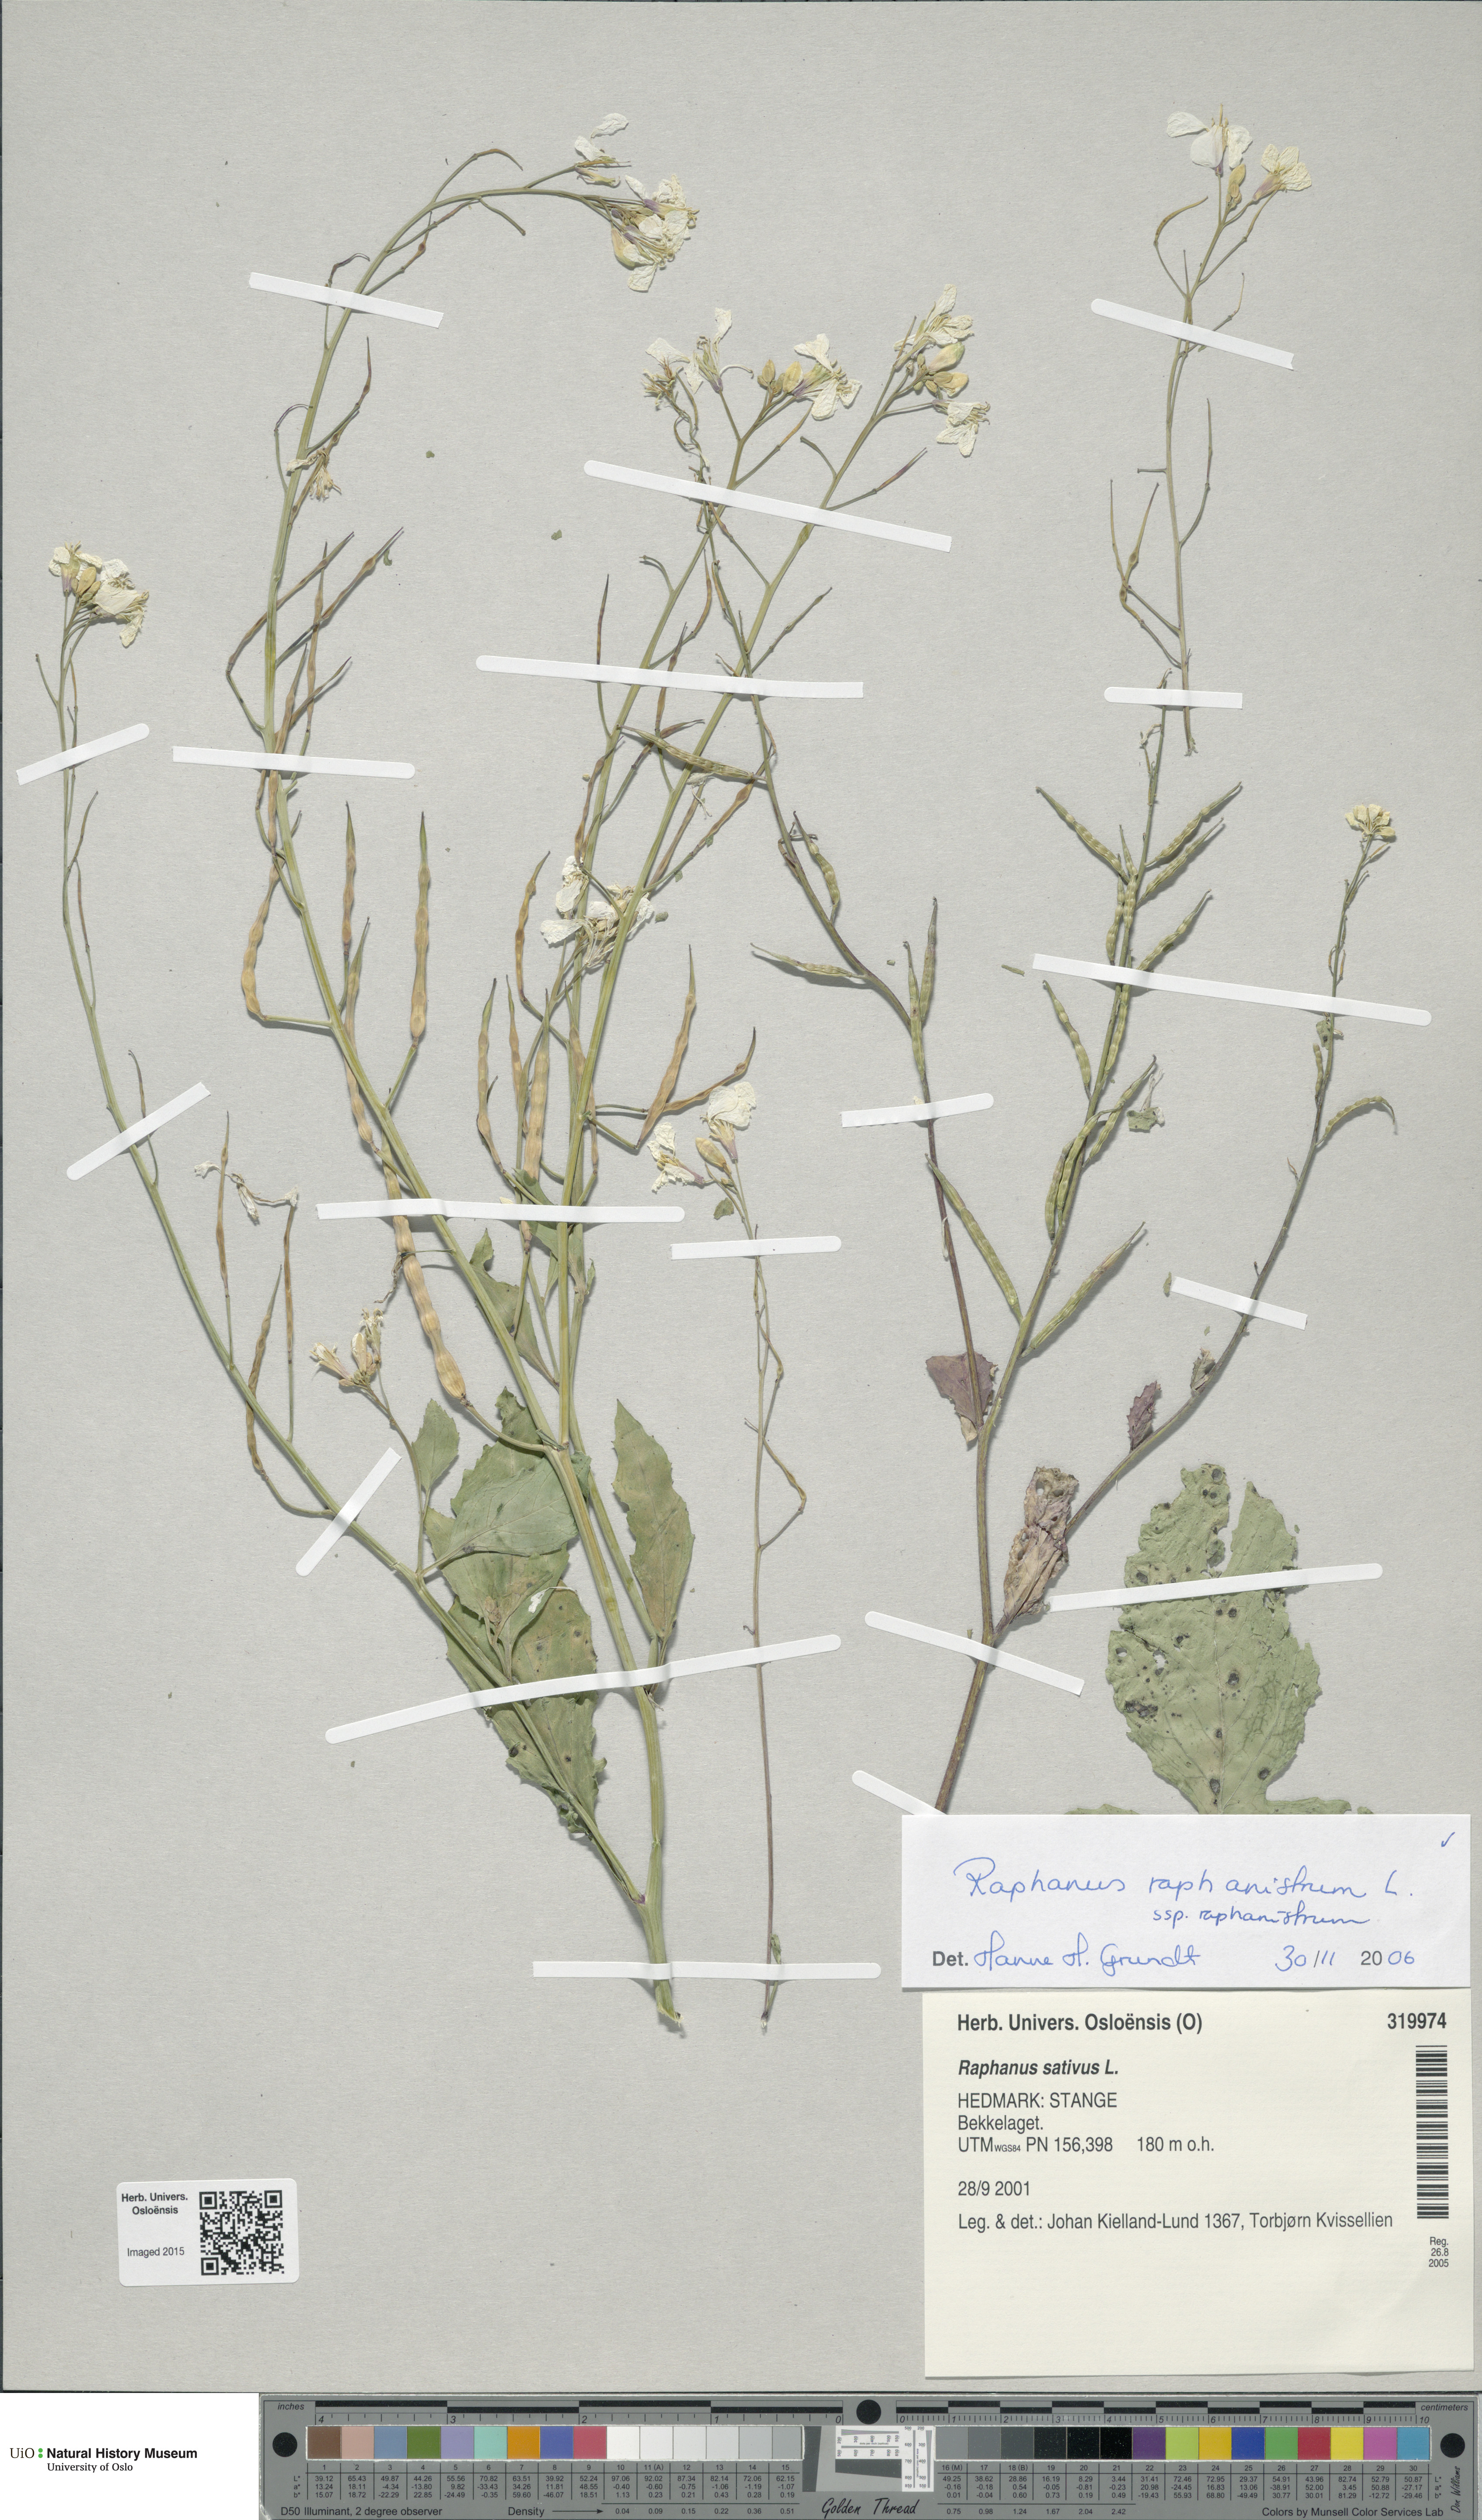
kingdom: Plantae
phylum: Tracheophyta
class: Magnoliopsida
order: Brassicales
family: Brassicaceae
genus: Raphanus
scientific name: Raphanus raphanistrum
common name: Wild radish
